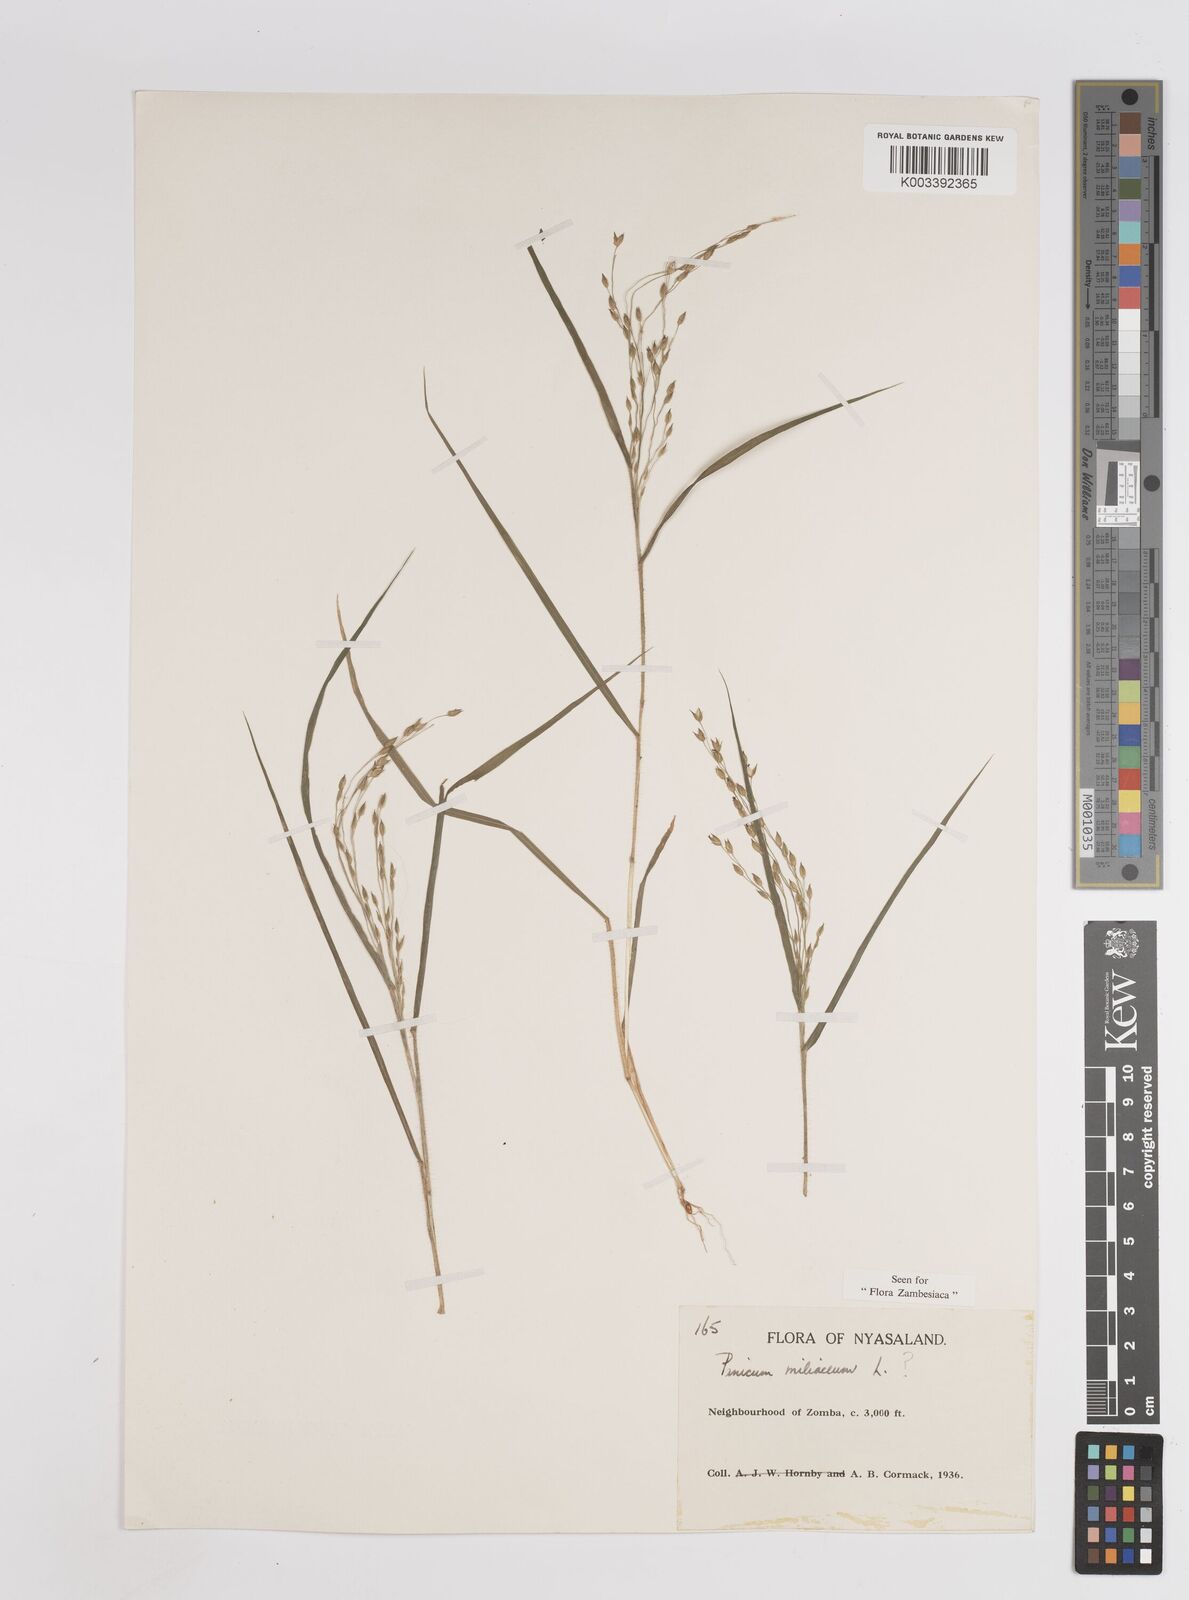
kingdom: Plantae
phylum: Tracheophyta
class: Liliopsida
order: Poales
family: Poaceae
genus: Panicum
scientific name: Panicum miliaceum
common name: Common millet
